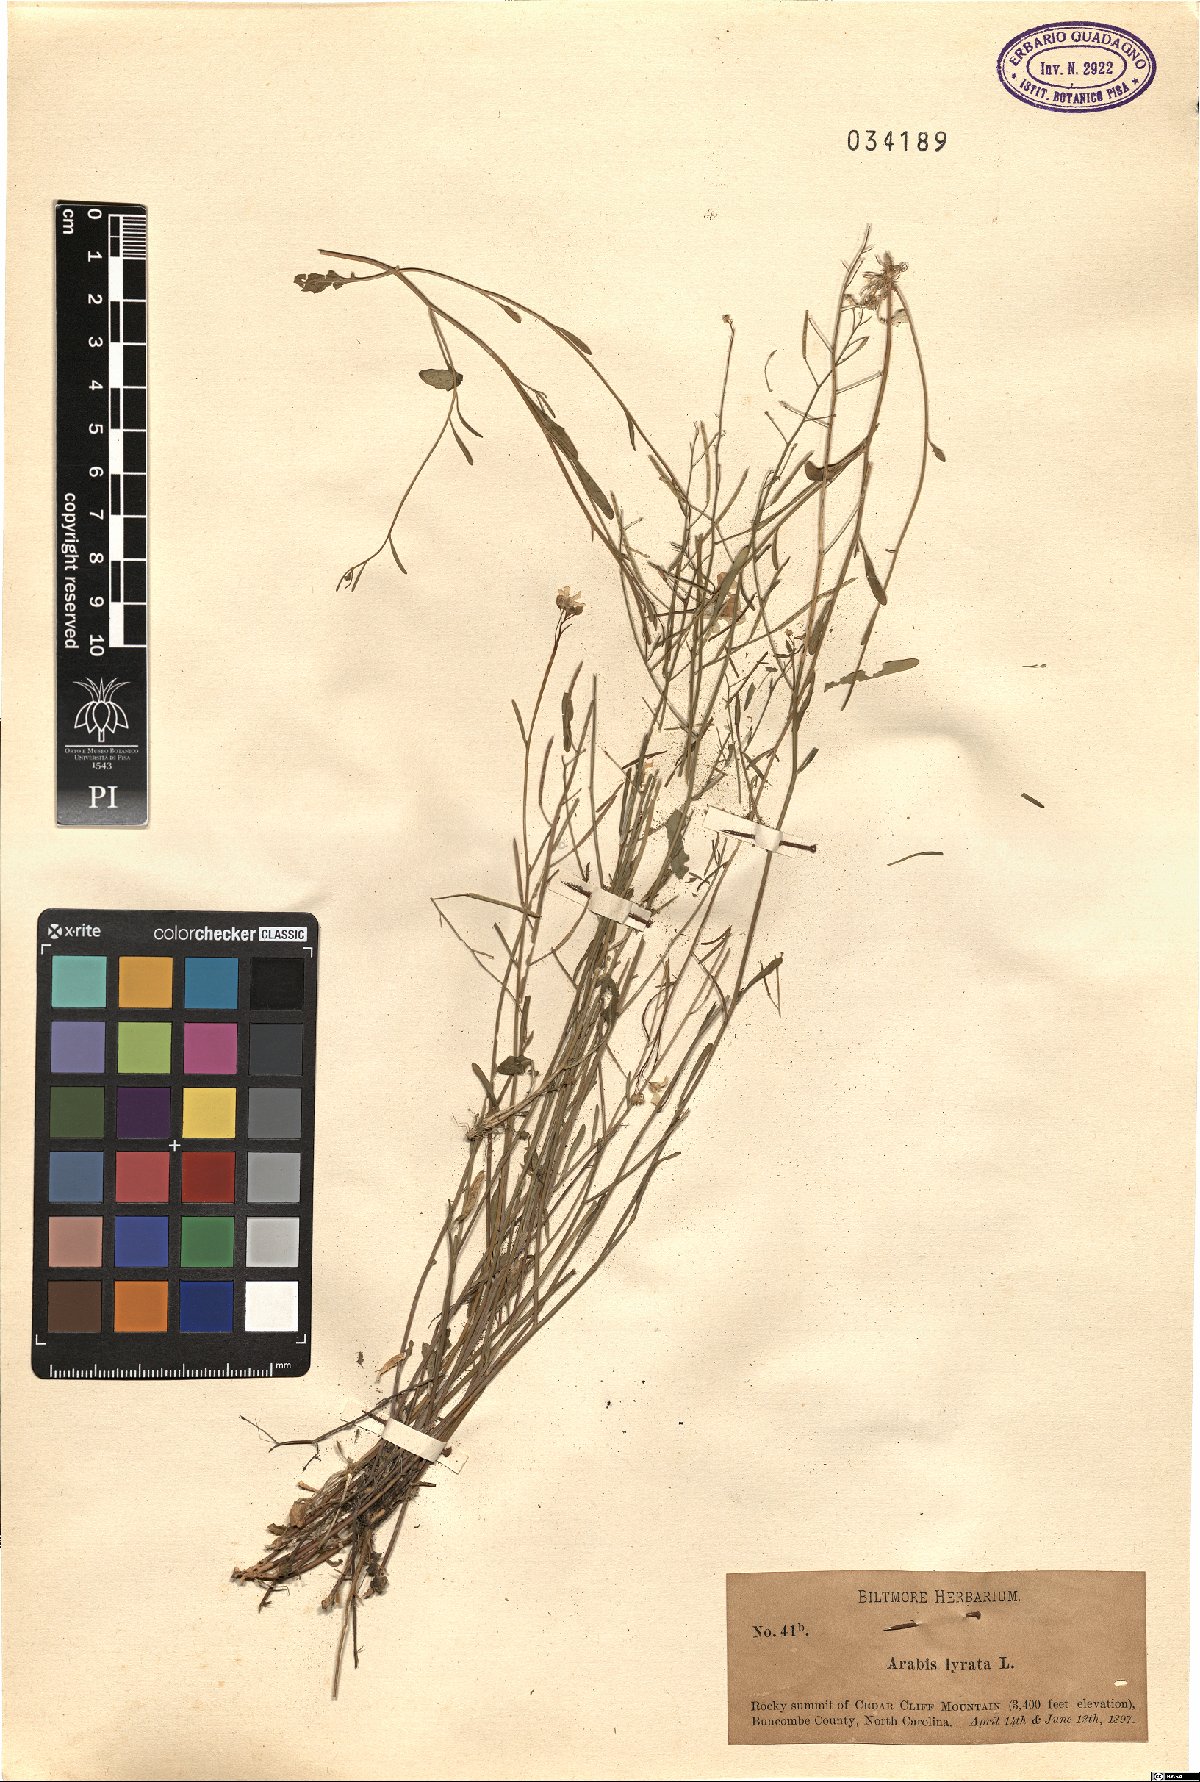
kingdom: Plantae
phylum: Tracheophyta
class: Magnoliopsida
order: Brassicales
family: Brassicaceae
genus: Arabidopsis
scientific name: Arabidopsis lyrata
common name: Lyrate rockcress
